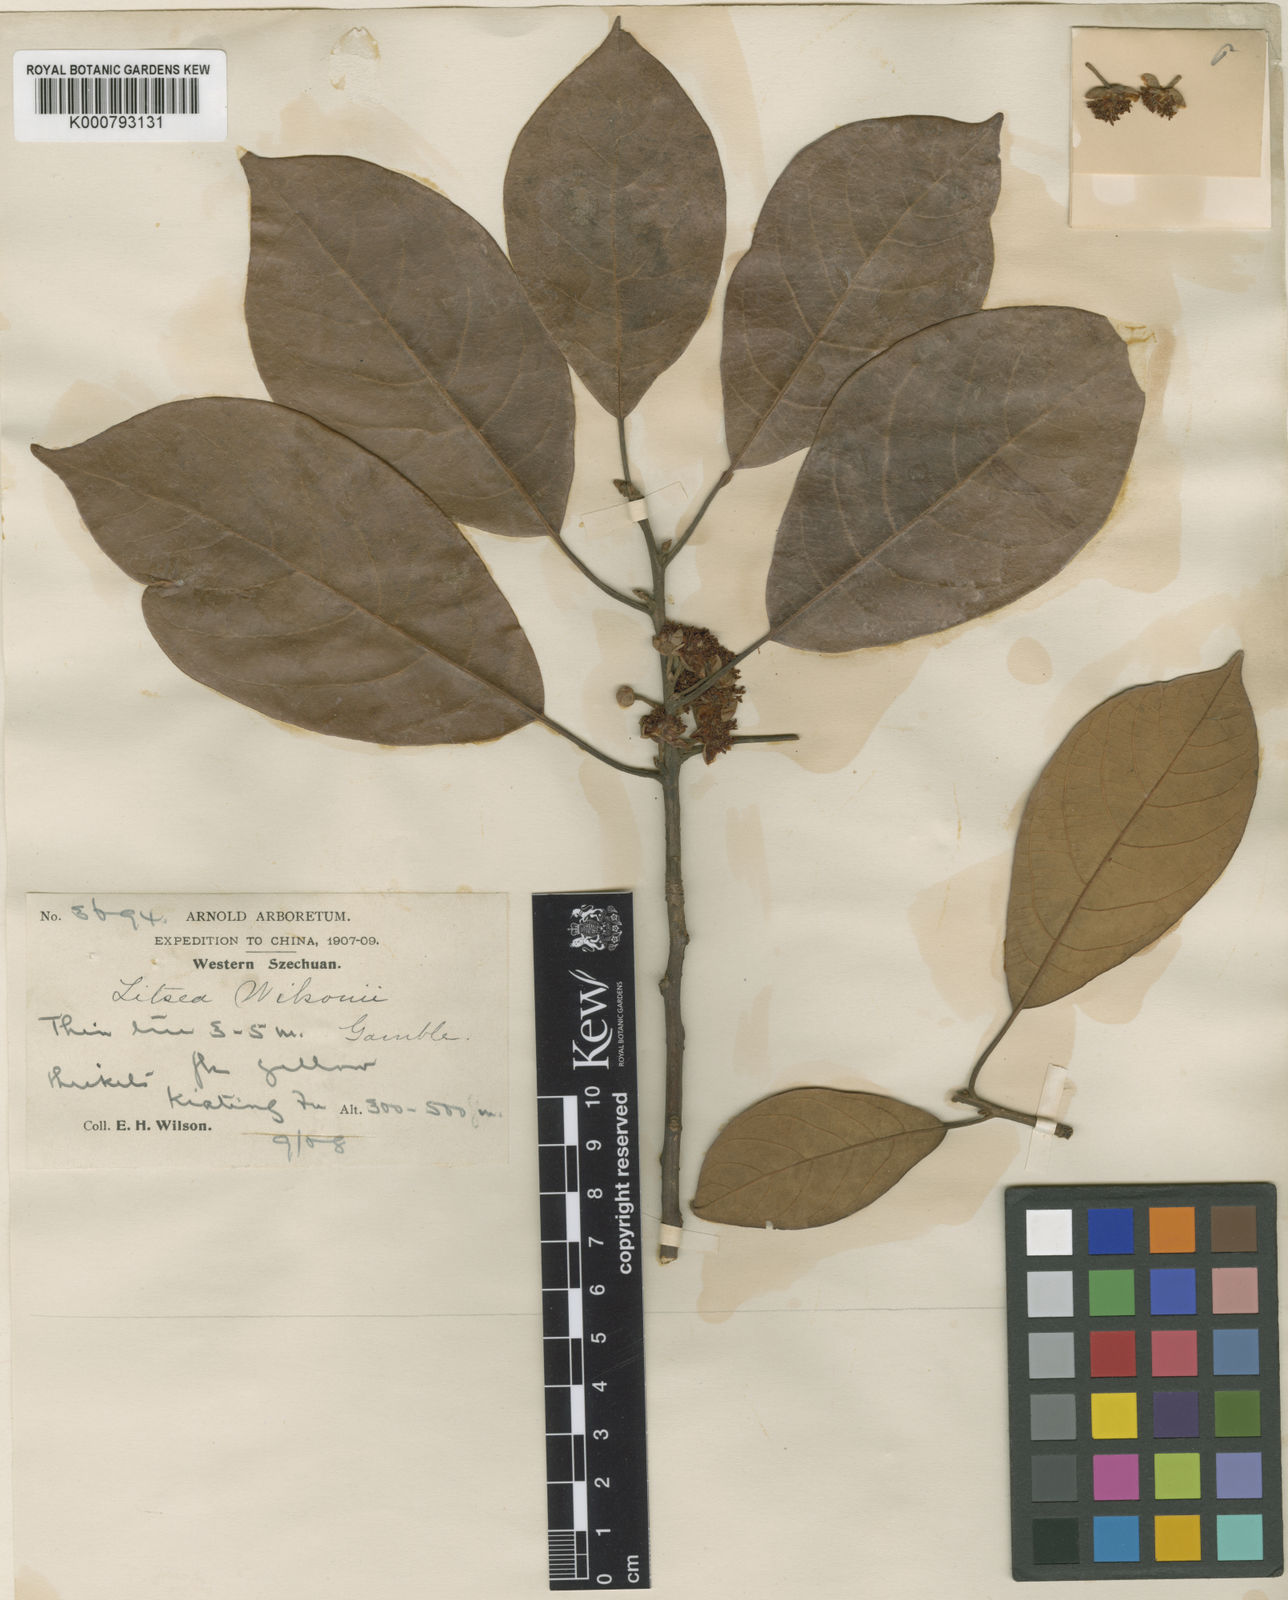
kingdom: Plantae
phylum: Tracheophyta
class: Magnoliopsida
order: Laurales
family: Lauraceae
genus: Litsea
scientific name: Litsea wilsonii
